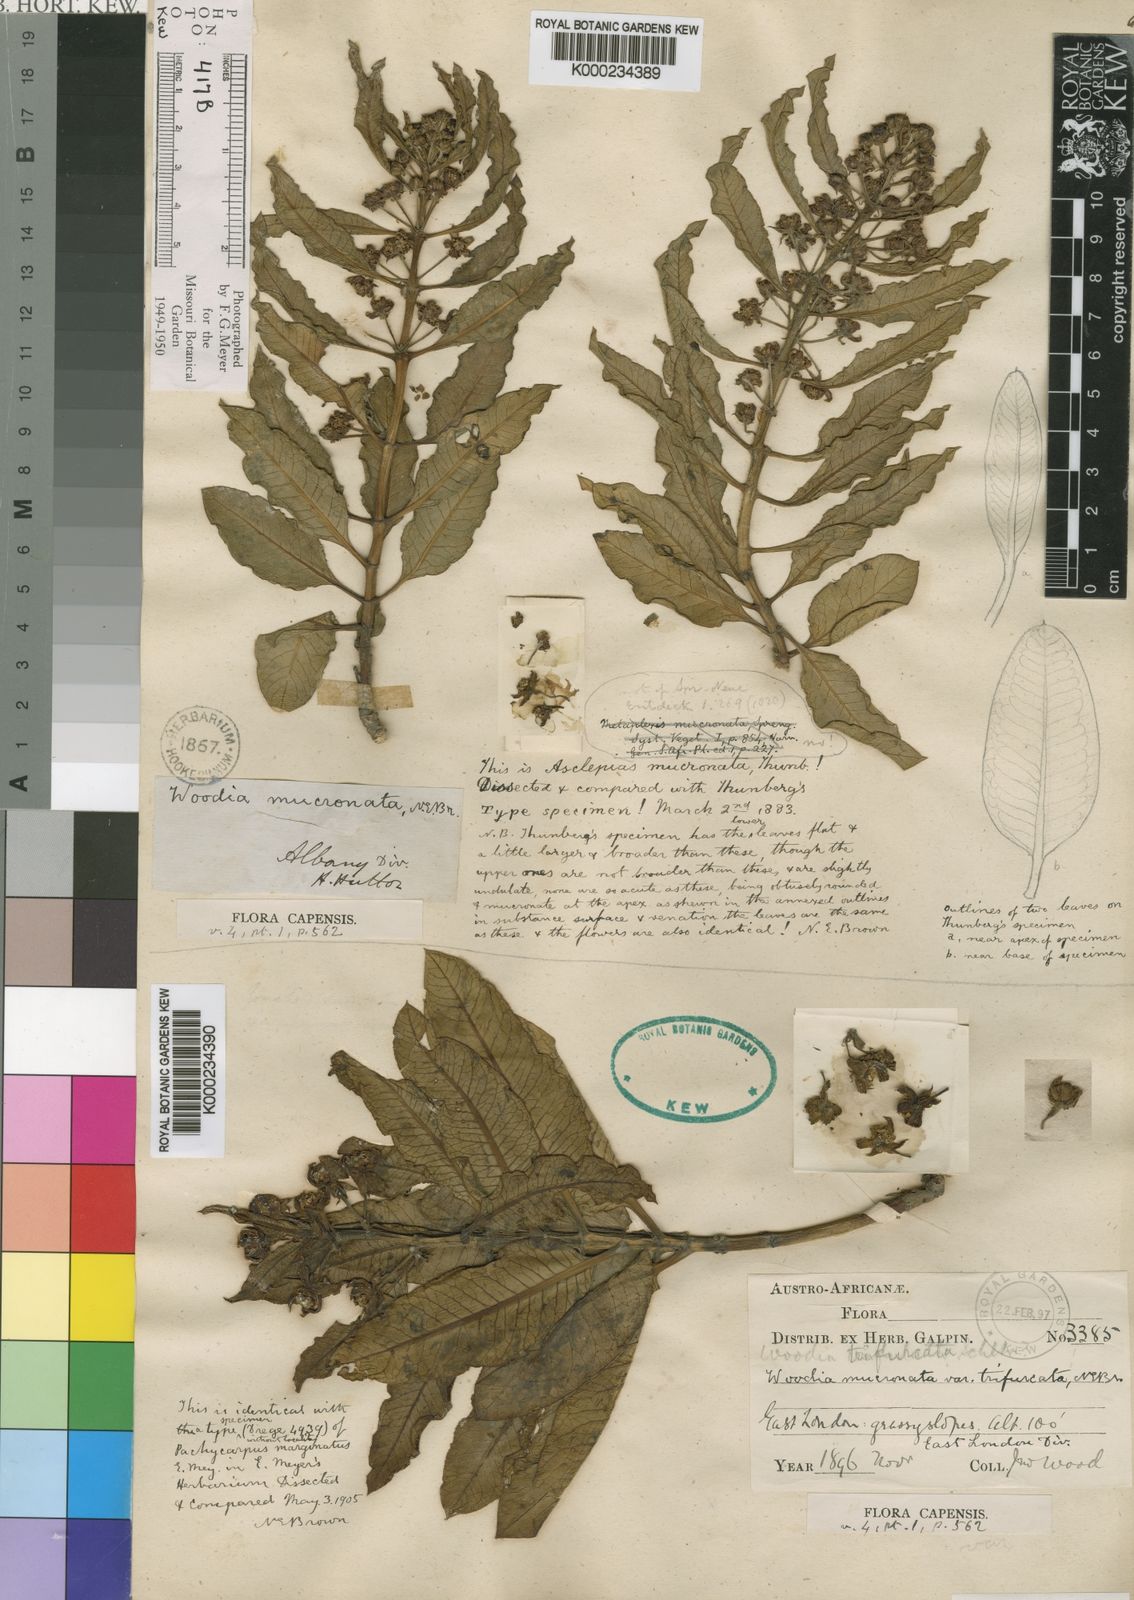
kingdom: Plantae
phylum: Tracheophyta
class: Magnoliopsida
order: Gentianales
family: Asclepiadaceae
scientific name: Asclepiadaceae
